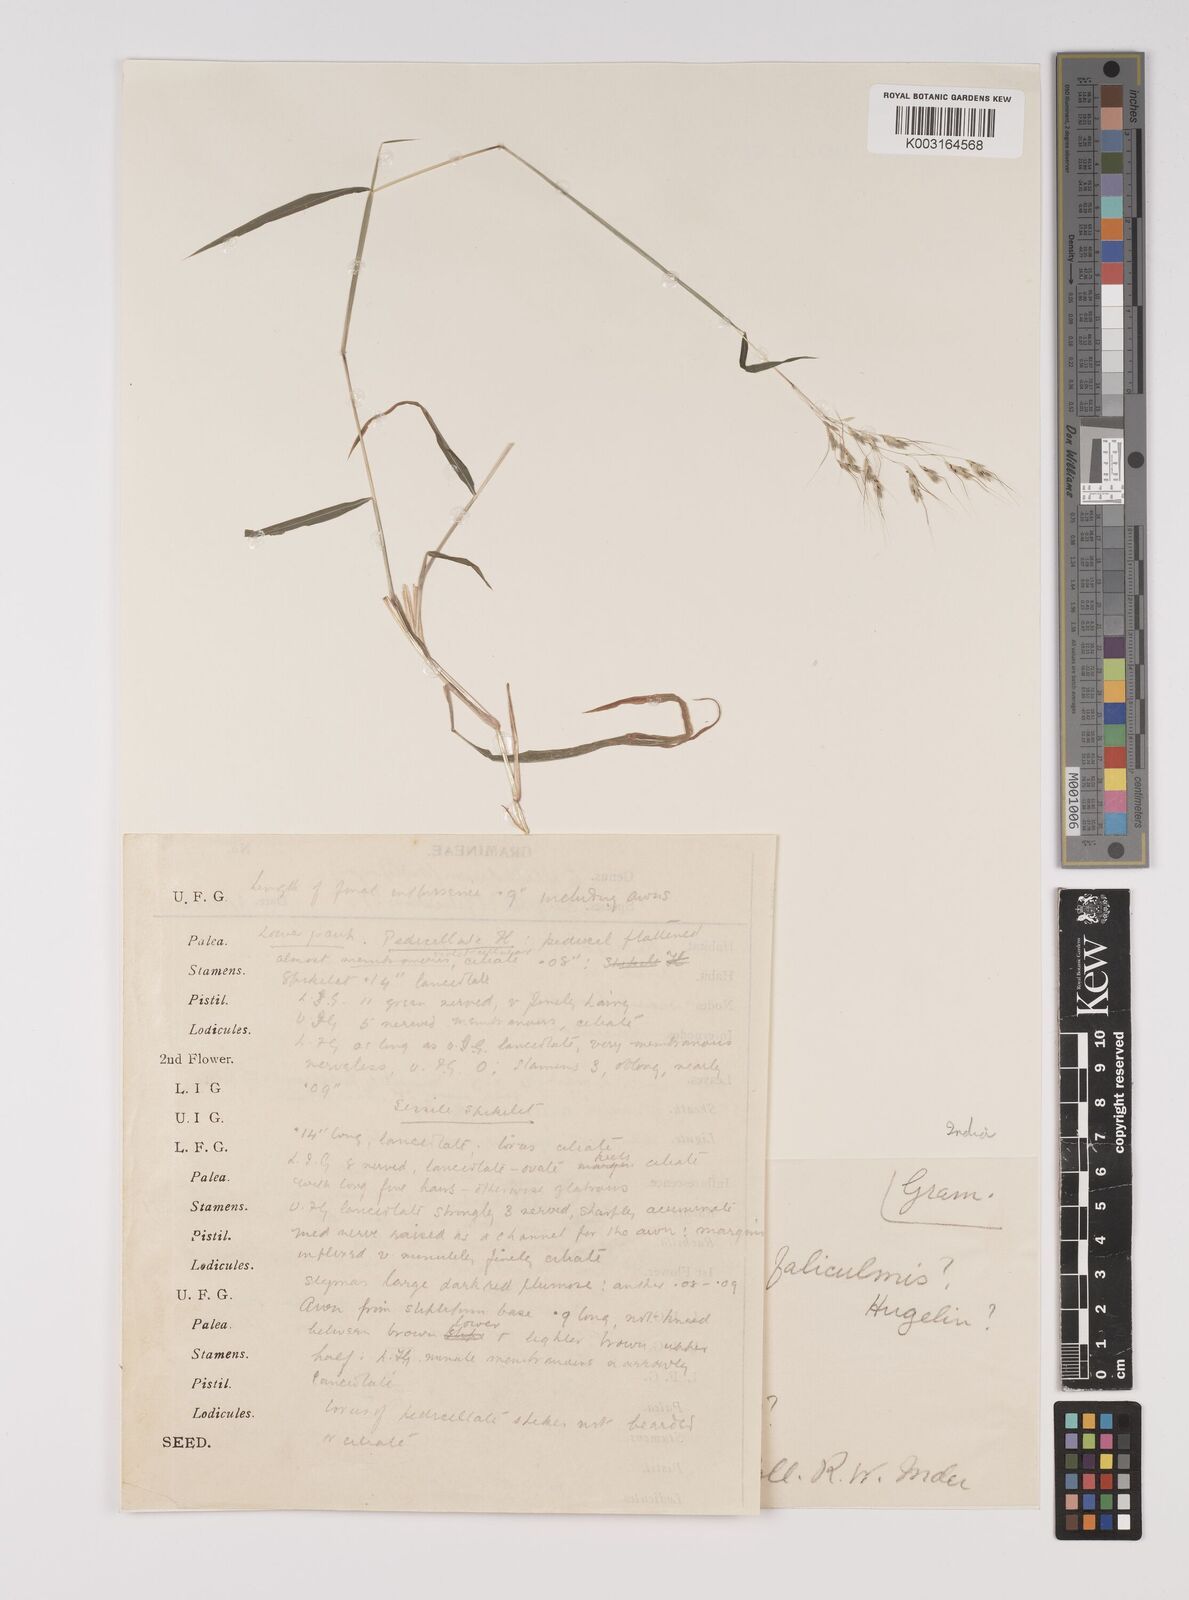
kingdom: Plantae
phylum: Tracheophyta
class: Liliopsida
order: Poales
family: Poaceae
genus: Capillipedium
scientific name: Capillipedium filiculme
